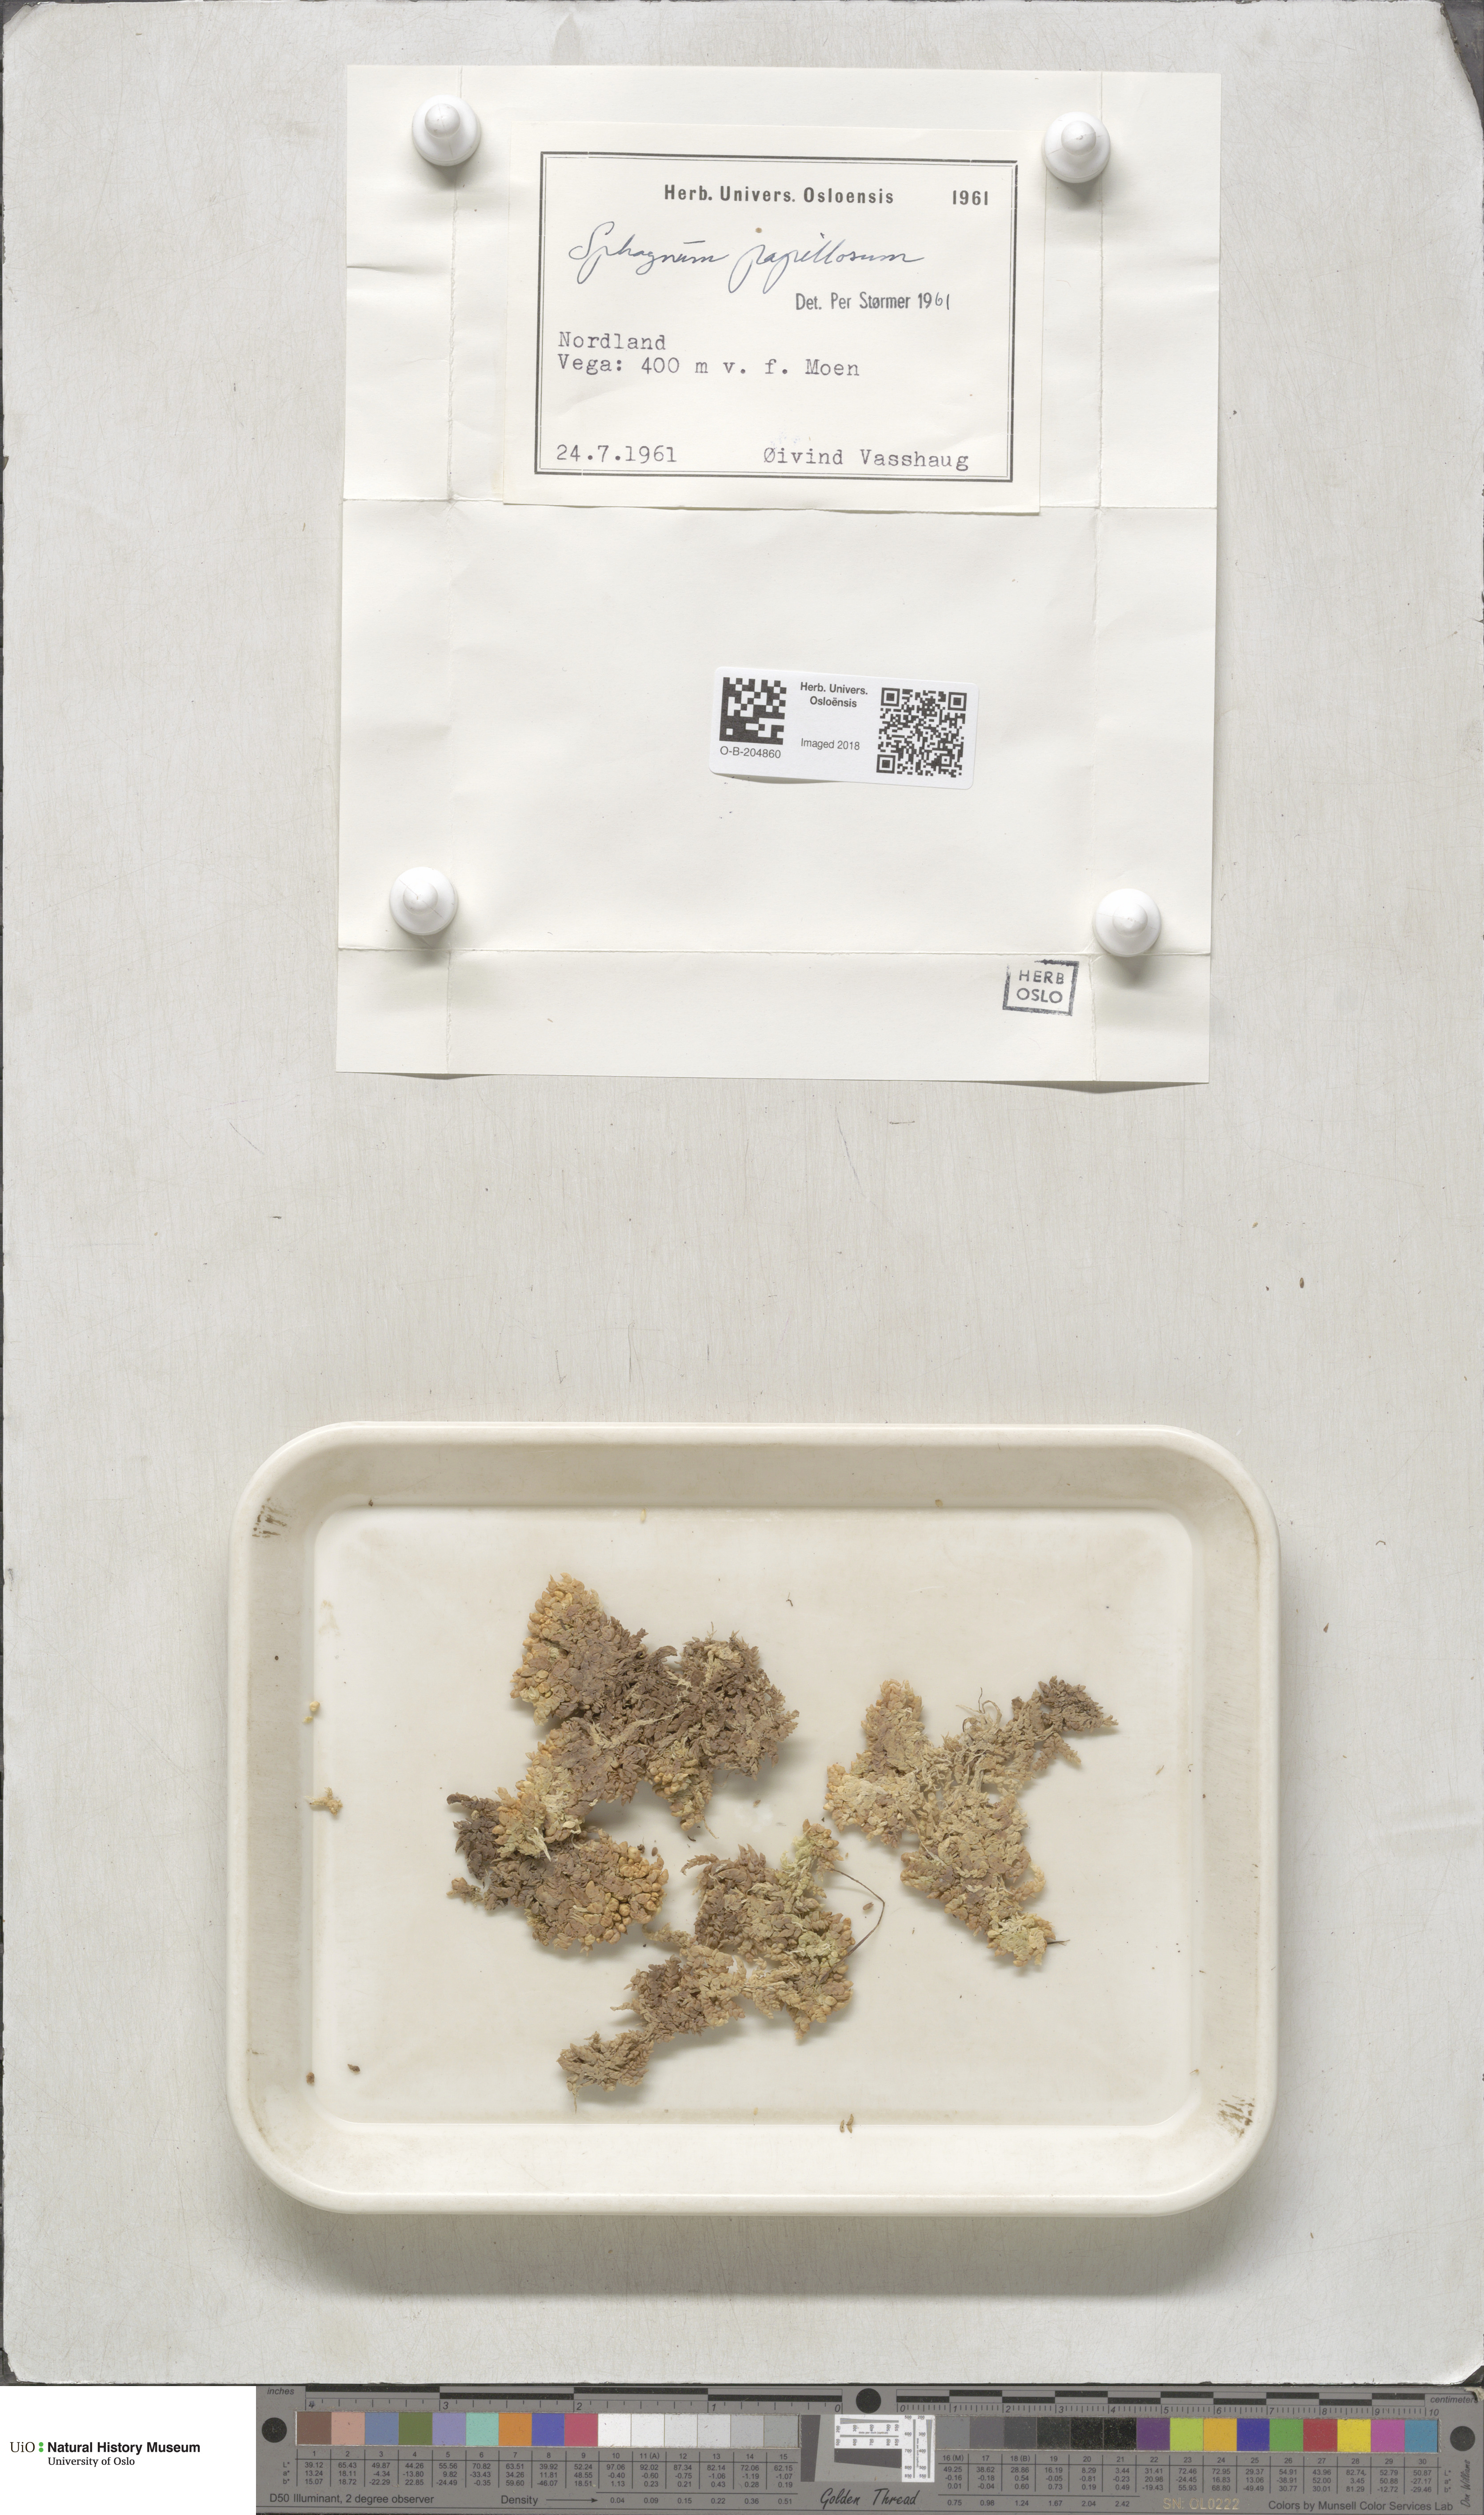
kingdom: Plantae
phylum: Bryophyta
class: Sphagnopsida
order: Sphagnales
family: Sphagnaceae
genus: Sphagnum
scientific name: Sphagnum papillosum
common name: Papillose peat moss
